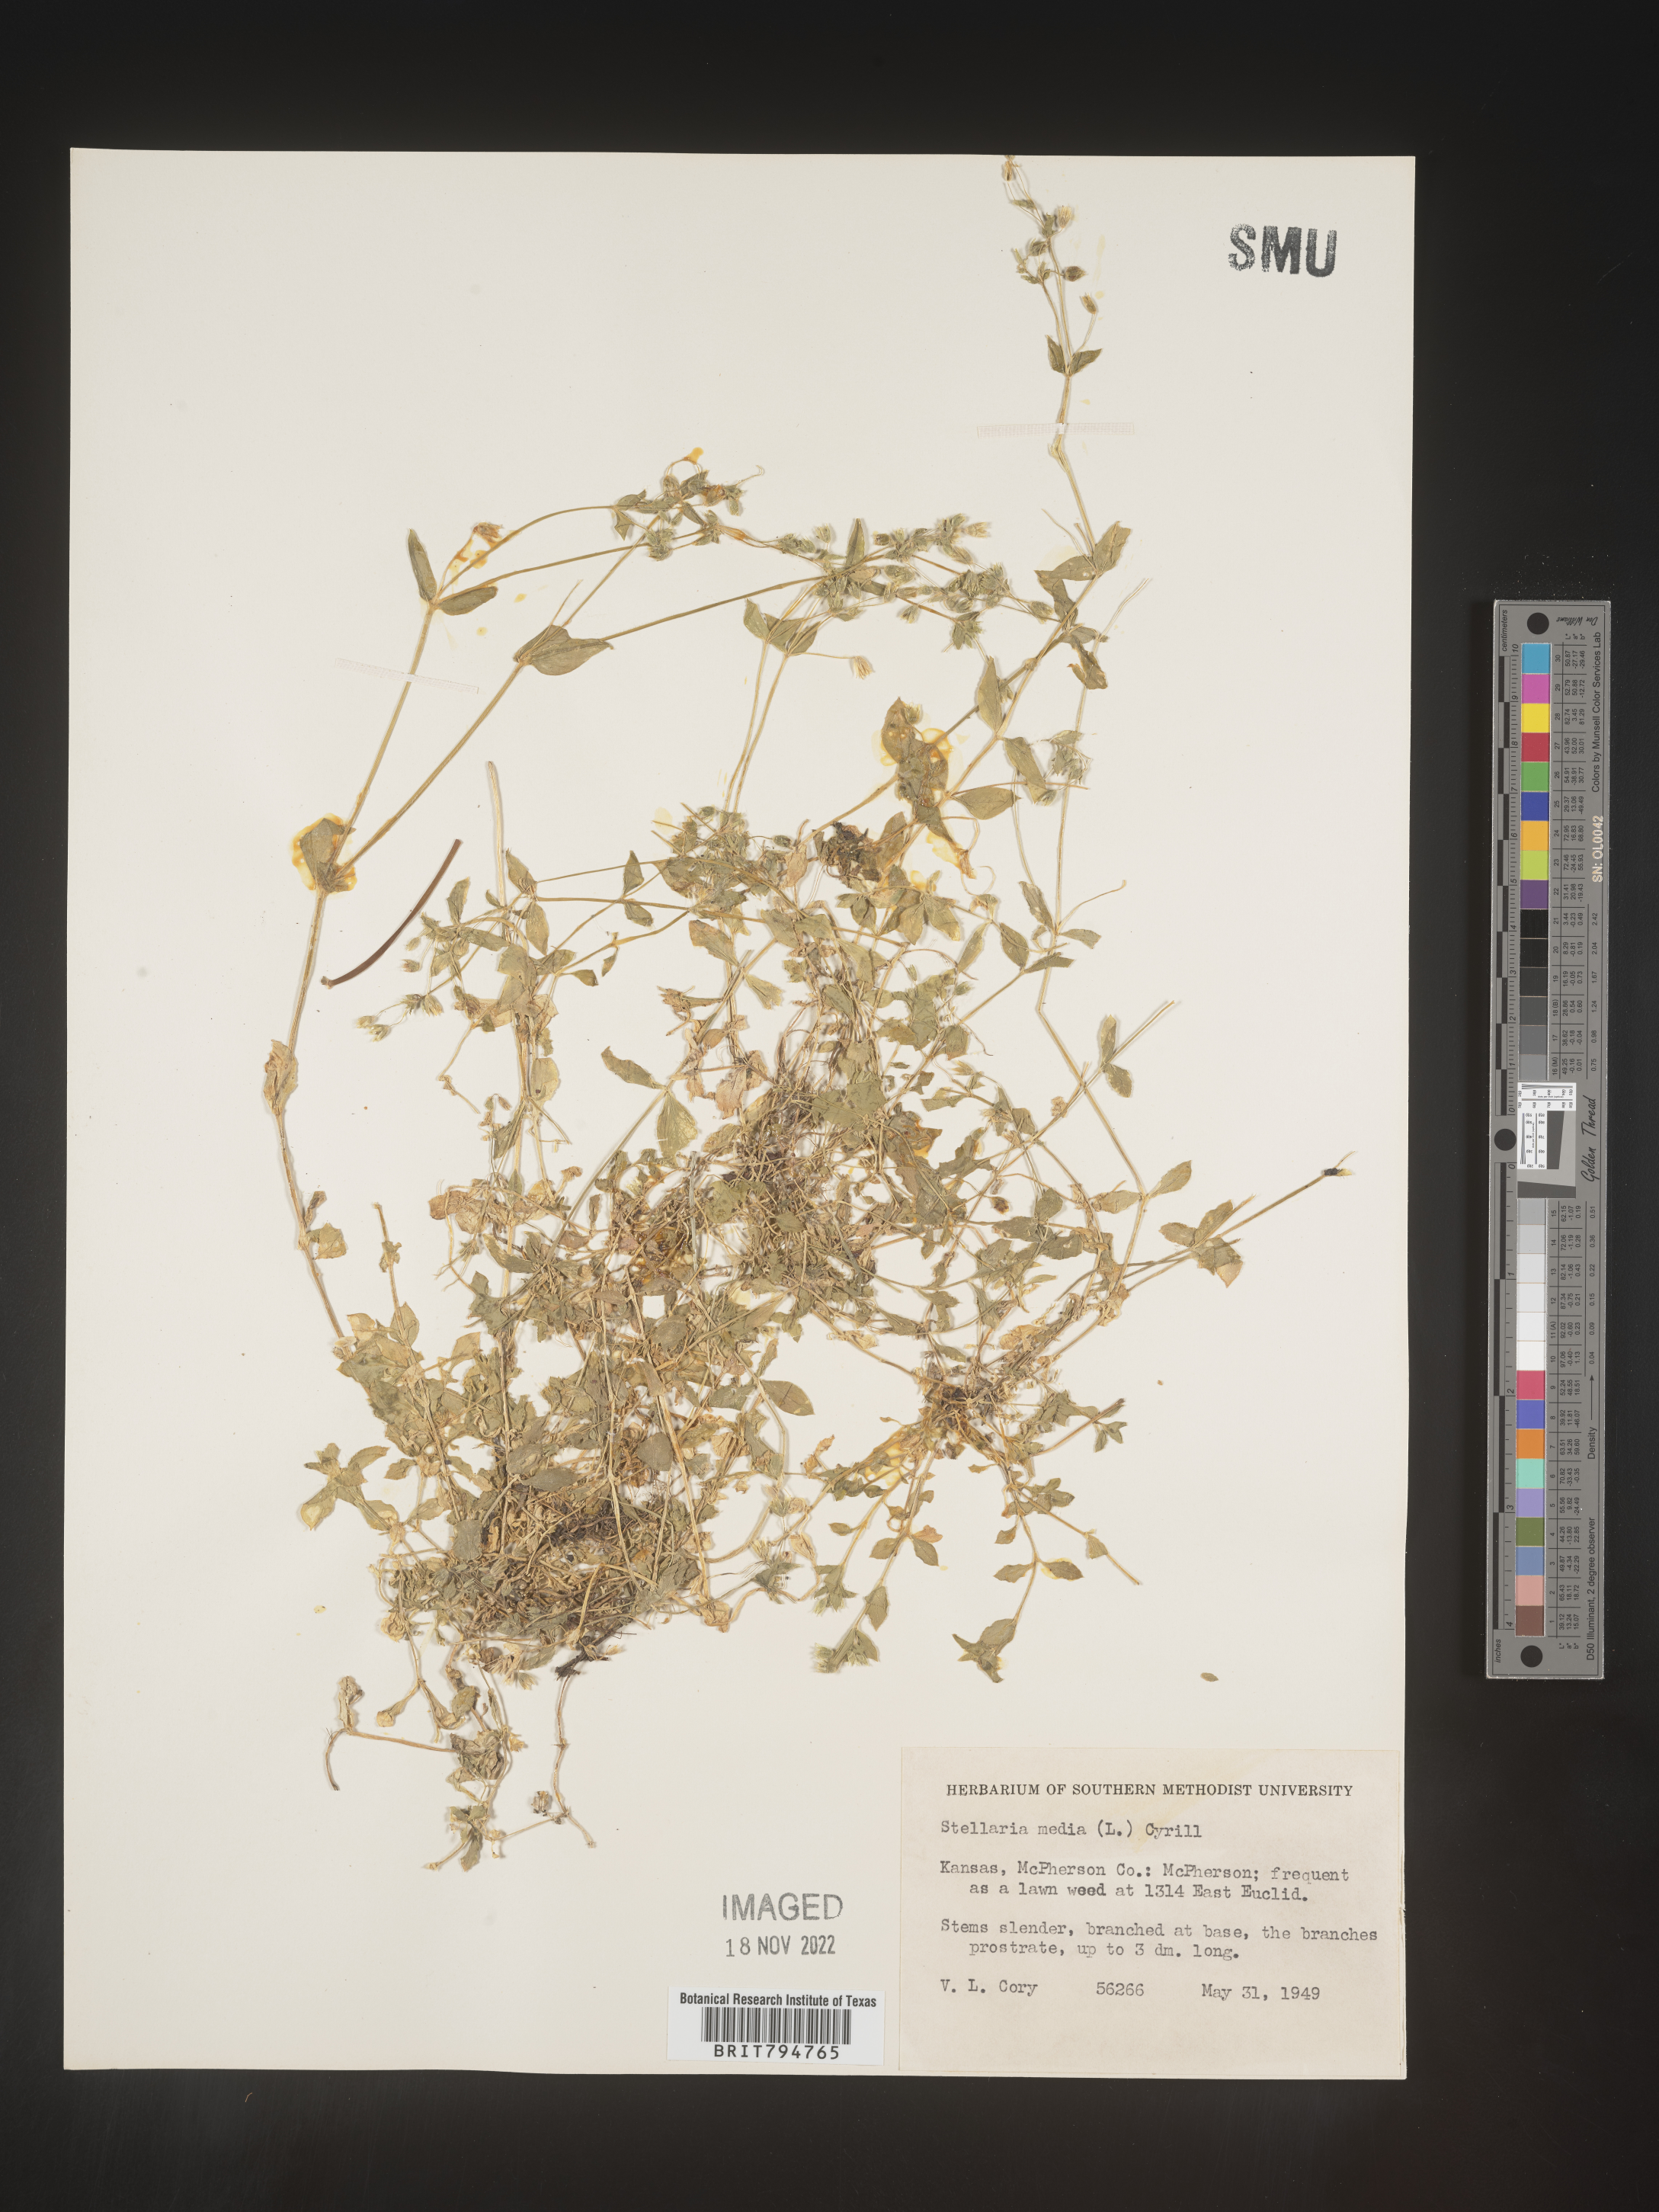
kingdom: Plantae
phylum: Tracheophyta
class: Magnoliopsida
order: Caryophyllales
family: Caryophyllaceae
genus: Stellaria
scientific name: Stellaria media
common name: Common chickweed
